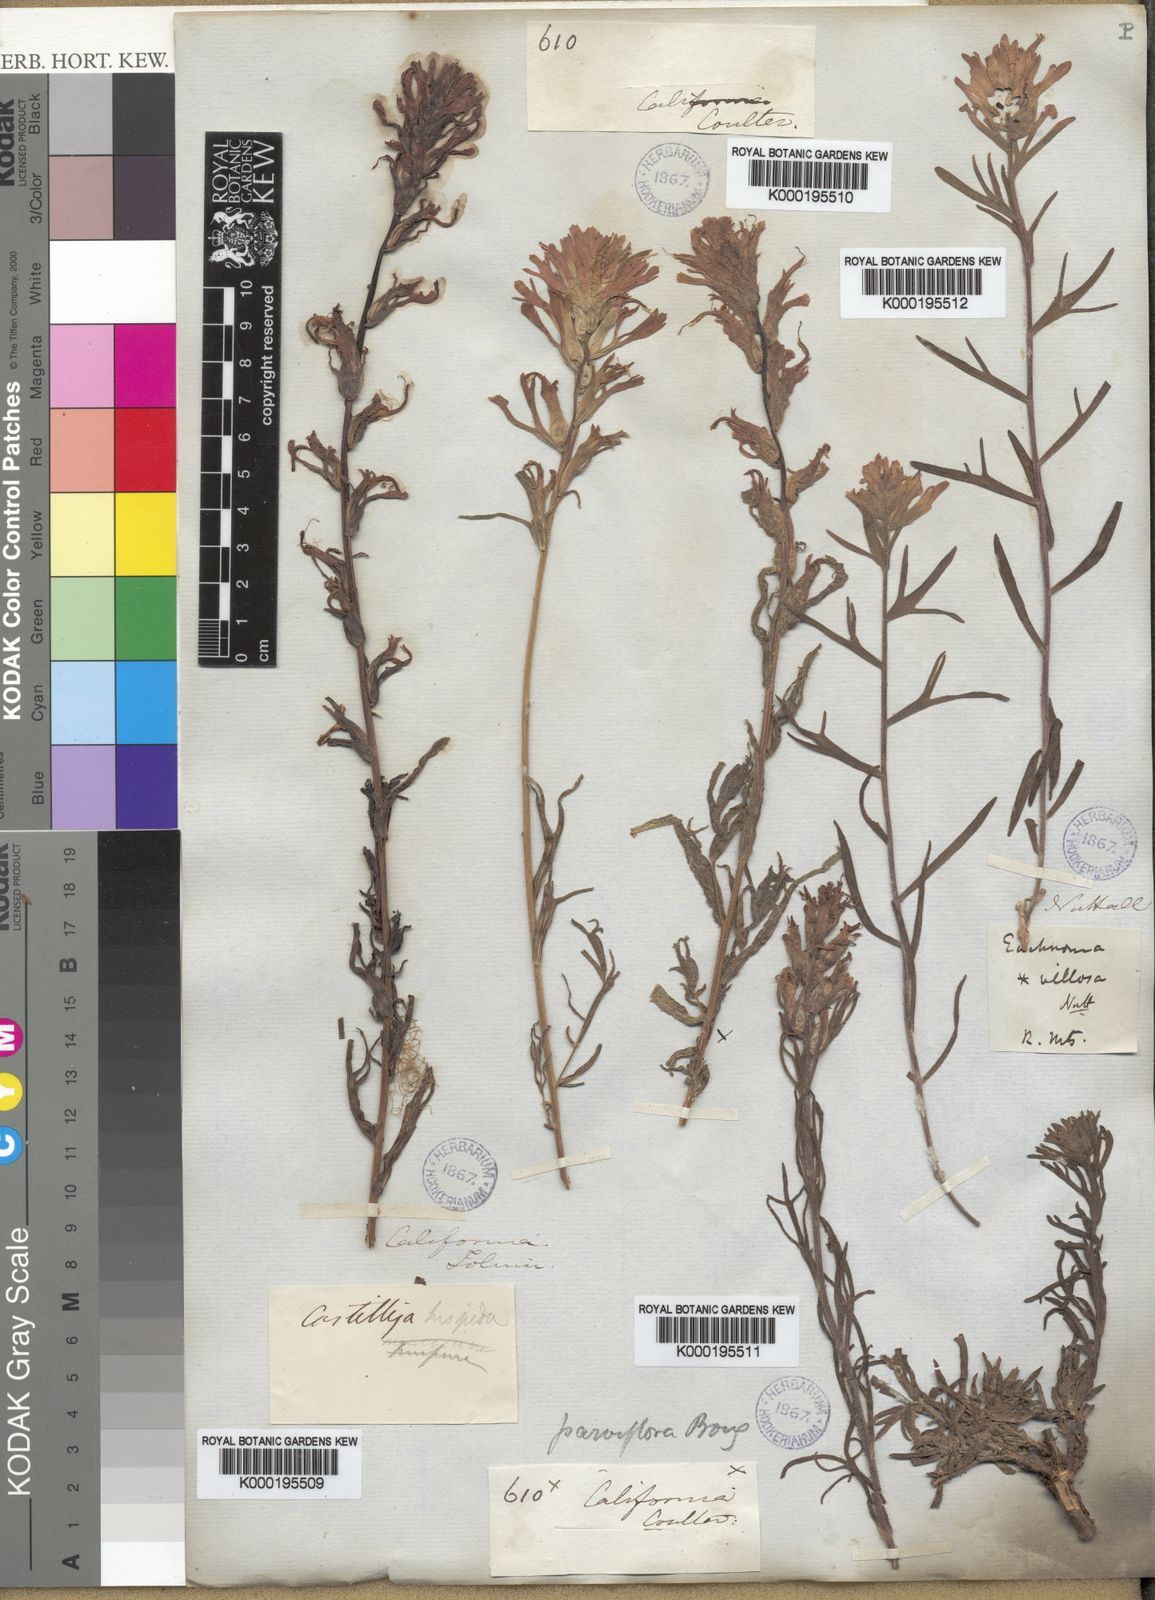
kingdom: Plantae
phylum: Tracheophyta
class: Magnoliopsida
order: Lamiales
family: Orobanchaceae
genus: Castilleja
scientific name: Castilleja angustifolia
